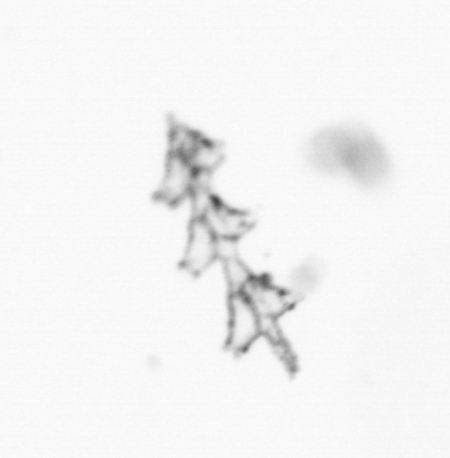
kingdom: Animalia
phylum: Cnidaria
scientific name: Cnidaria
